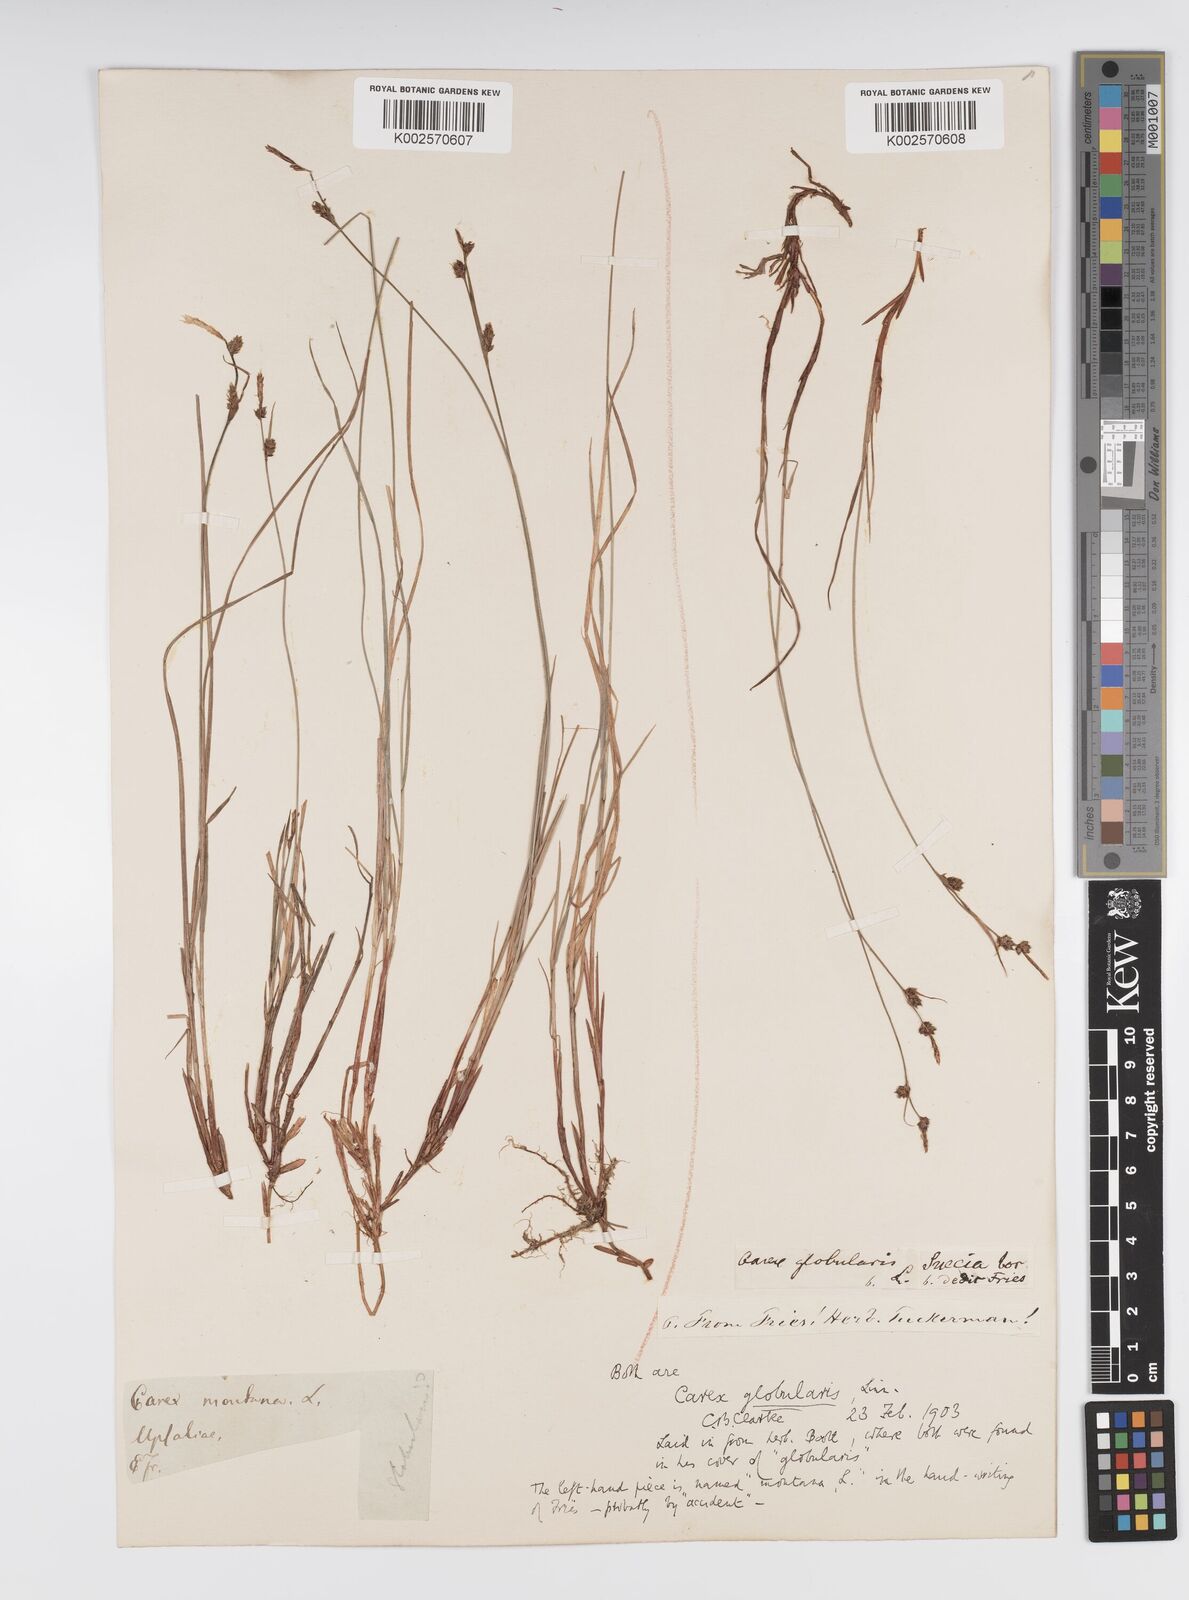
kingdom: Plantae
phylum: Tracheophyta
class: Liliopsida
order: Poales
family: Cyperaceae
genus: Carex
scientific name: Carex globularis
